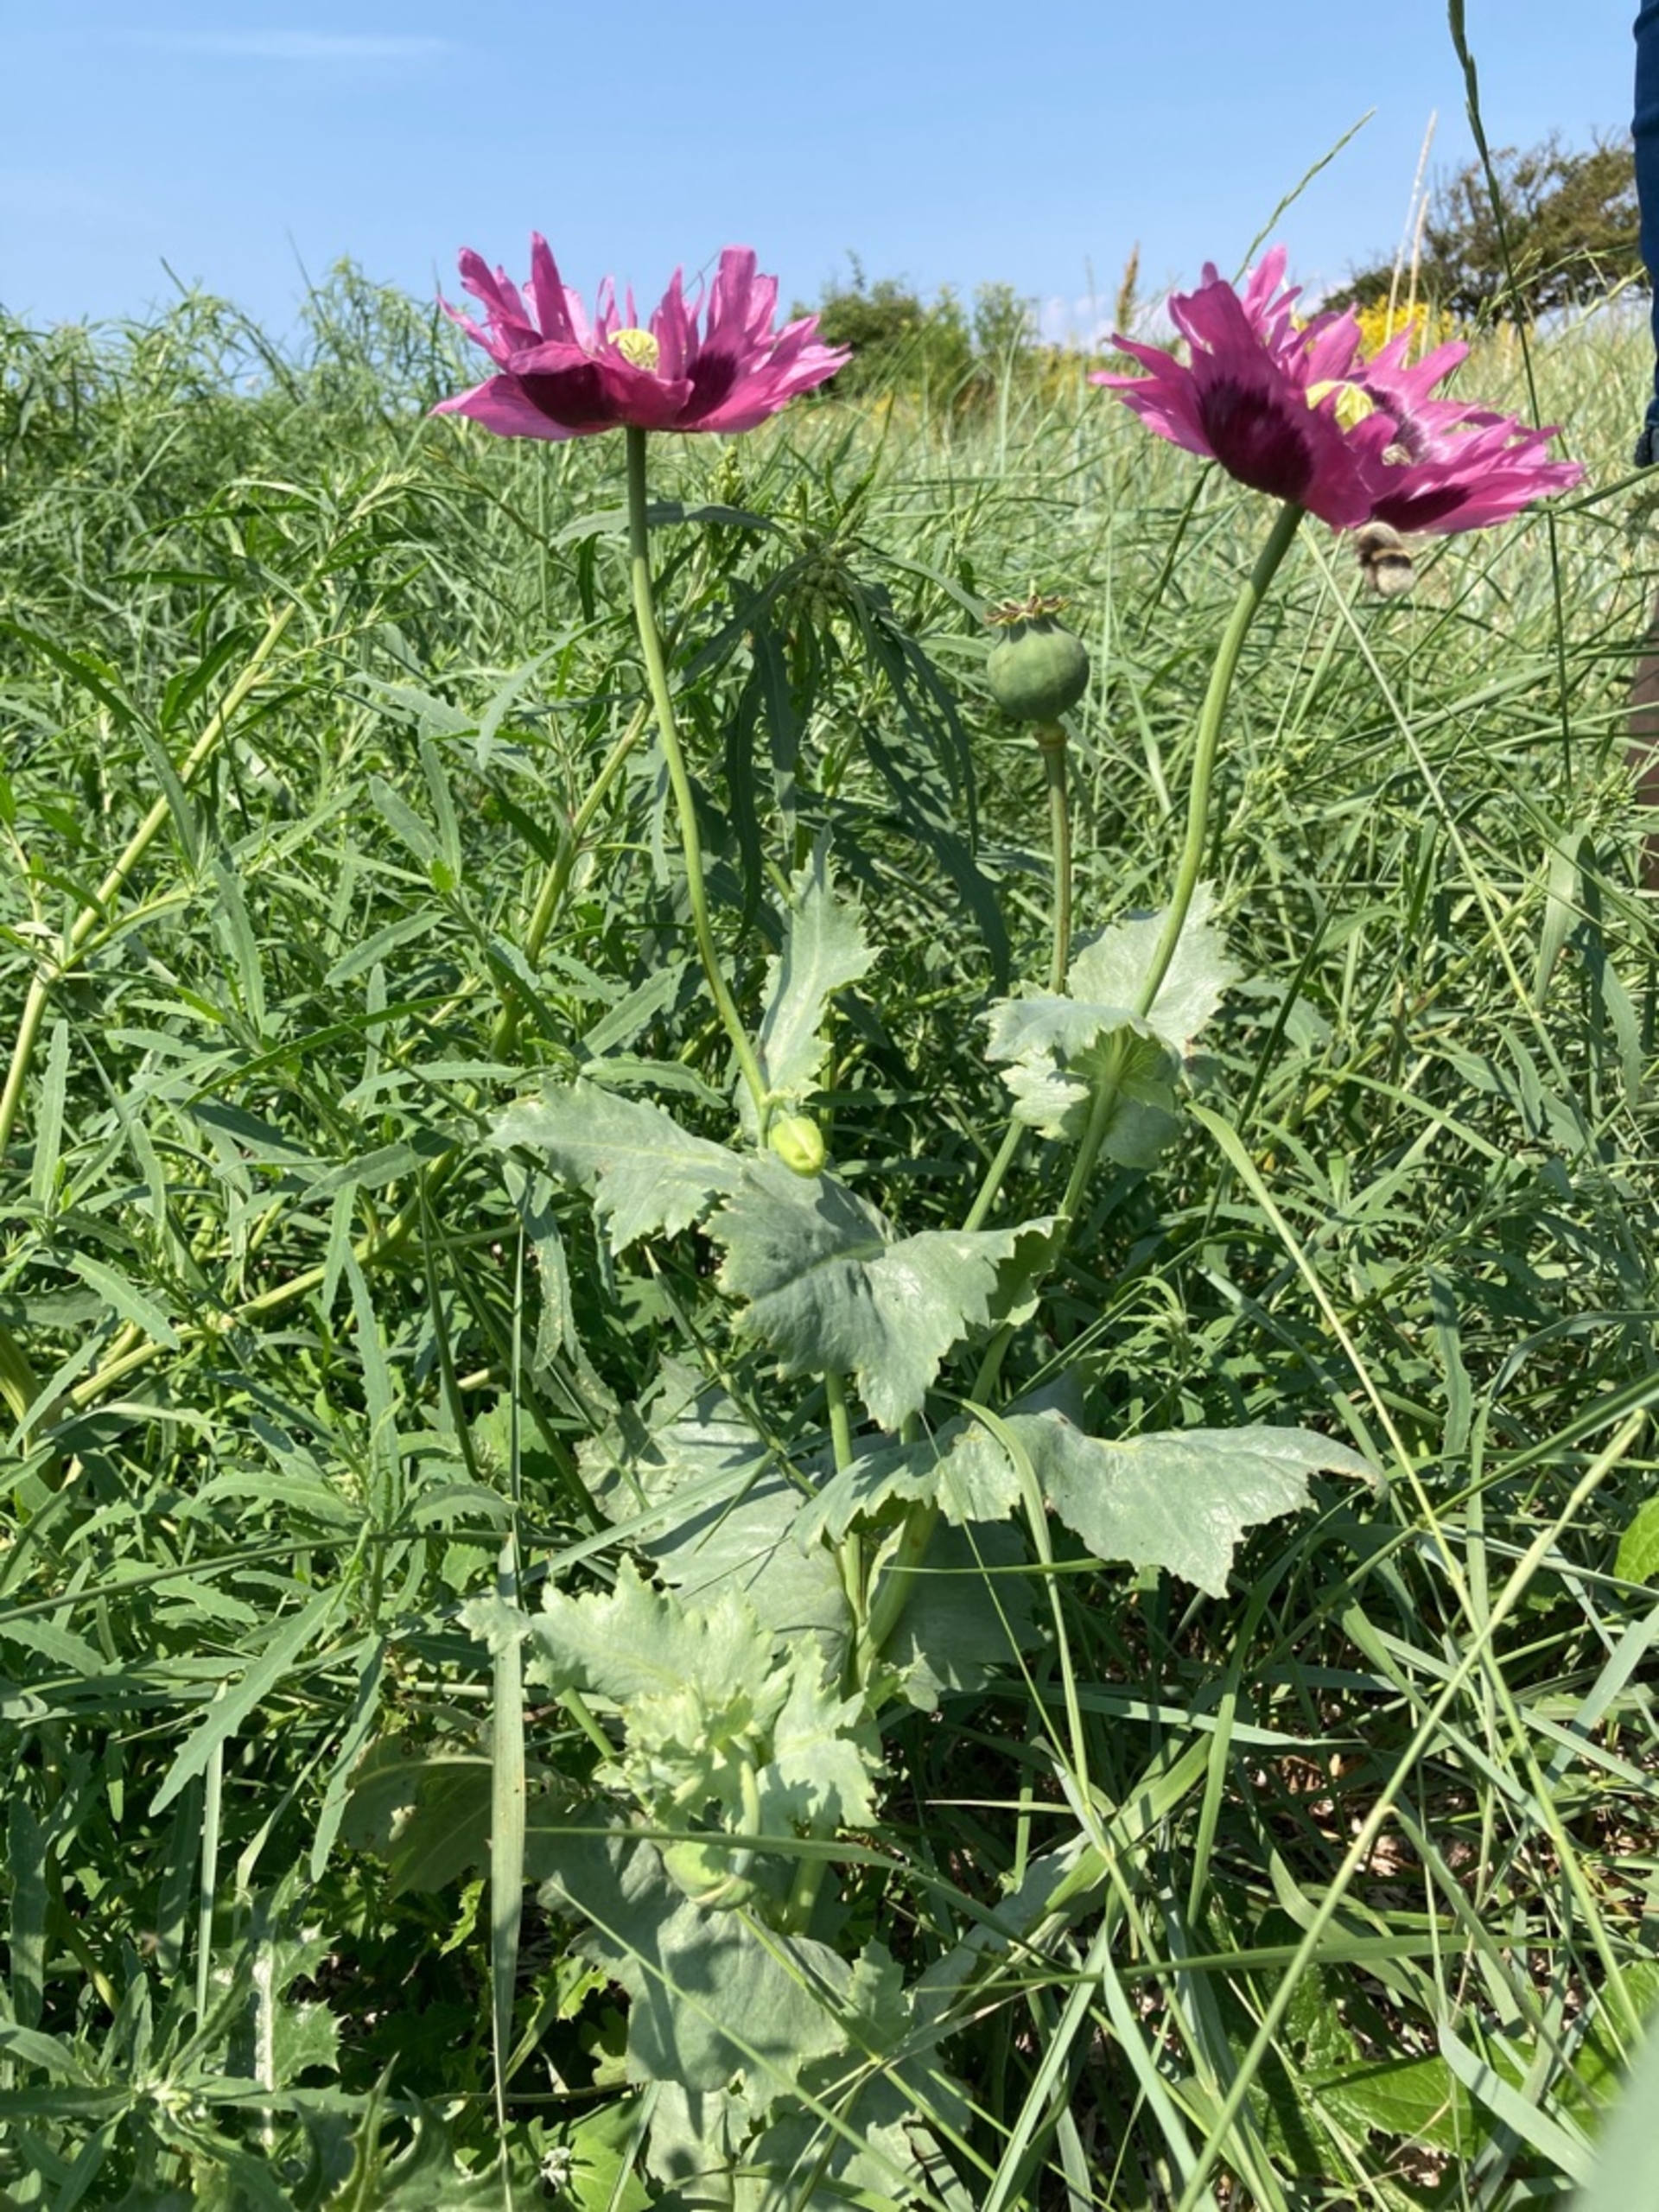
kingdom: Plantae
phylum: Tracheophyta
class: Magnoliopsida
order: Ranunculales
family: Papaveraceae
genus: Papaver
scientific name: Papaver somniferum
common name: Opium-valmue
